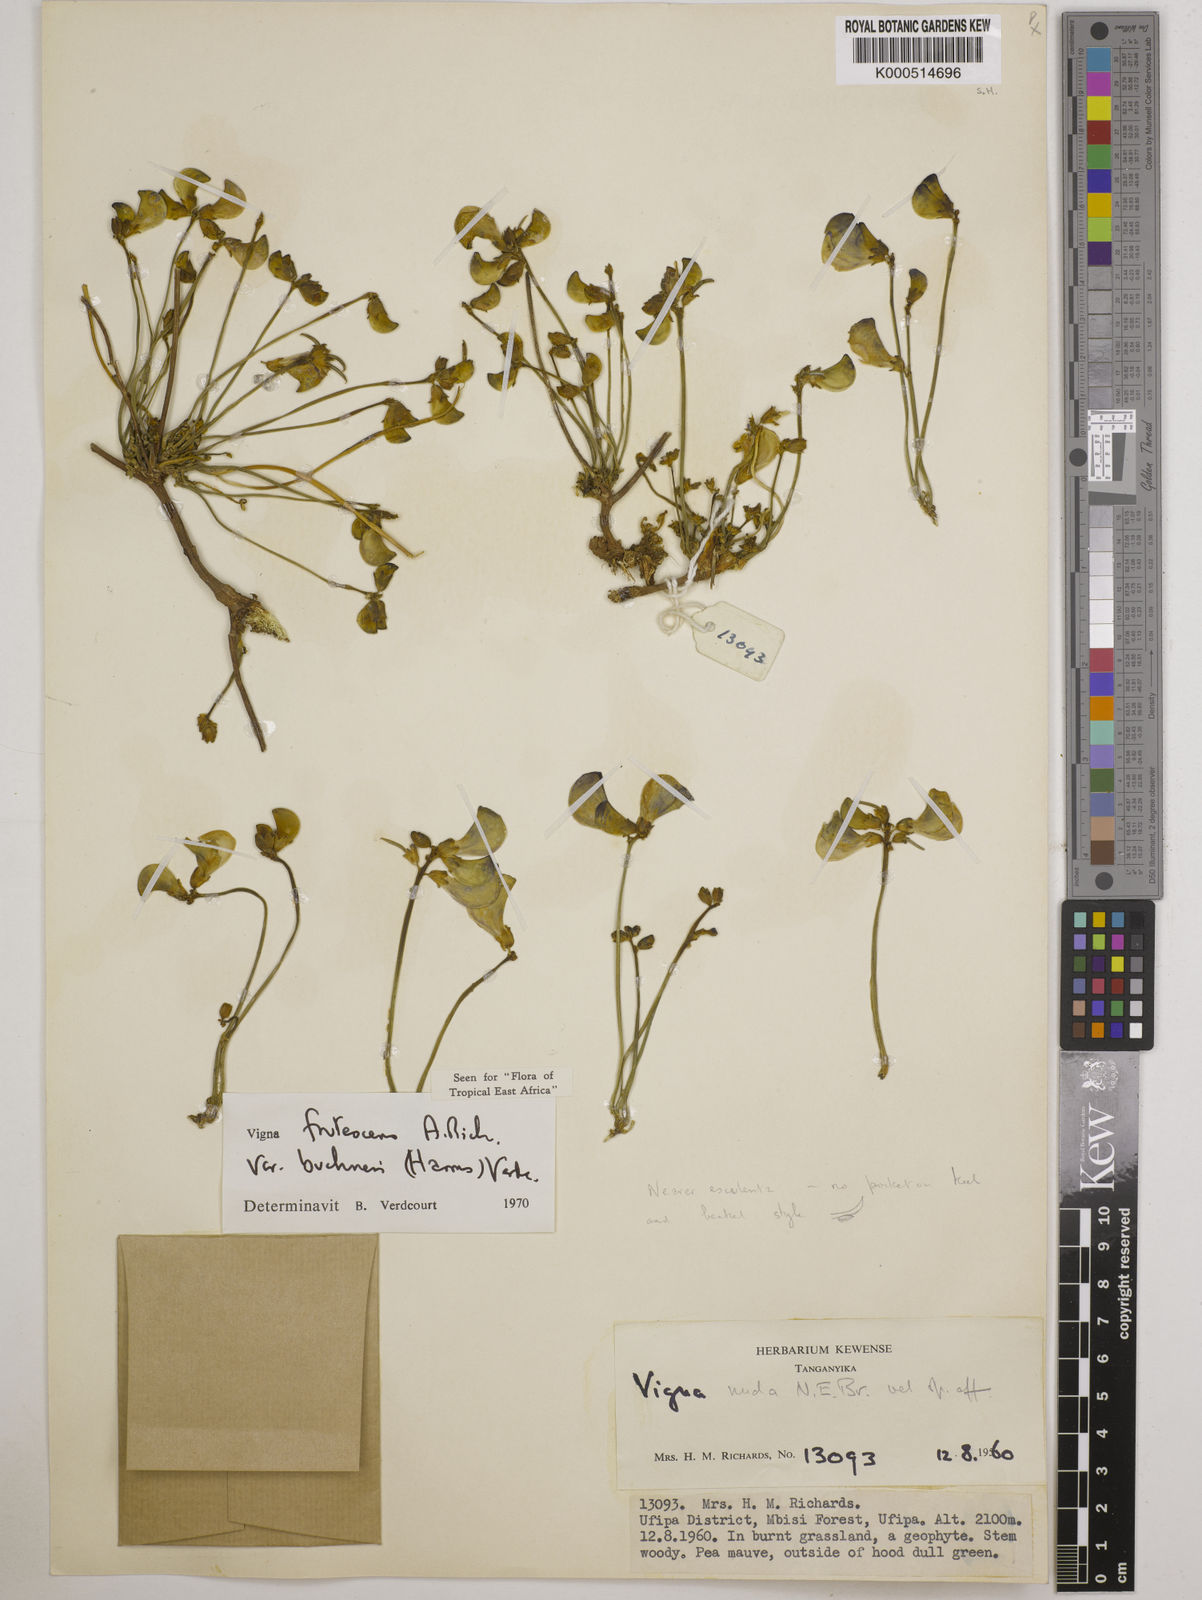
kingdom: Plantae
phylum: Tracheophyta
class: Magnoliopsida
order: Fabales
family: Fabaceae
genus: Vigna
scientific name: Vigna
